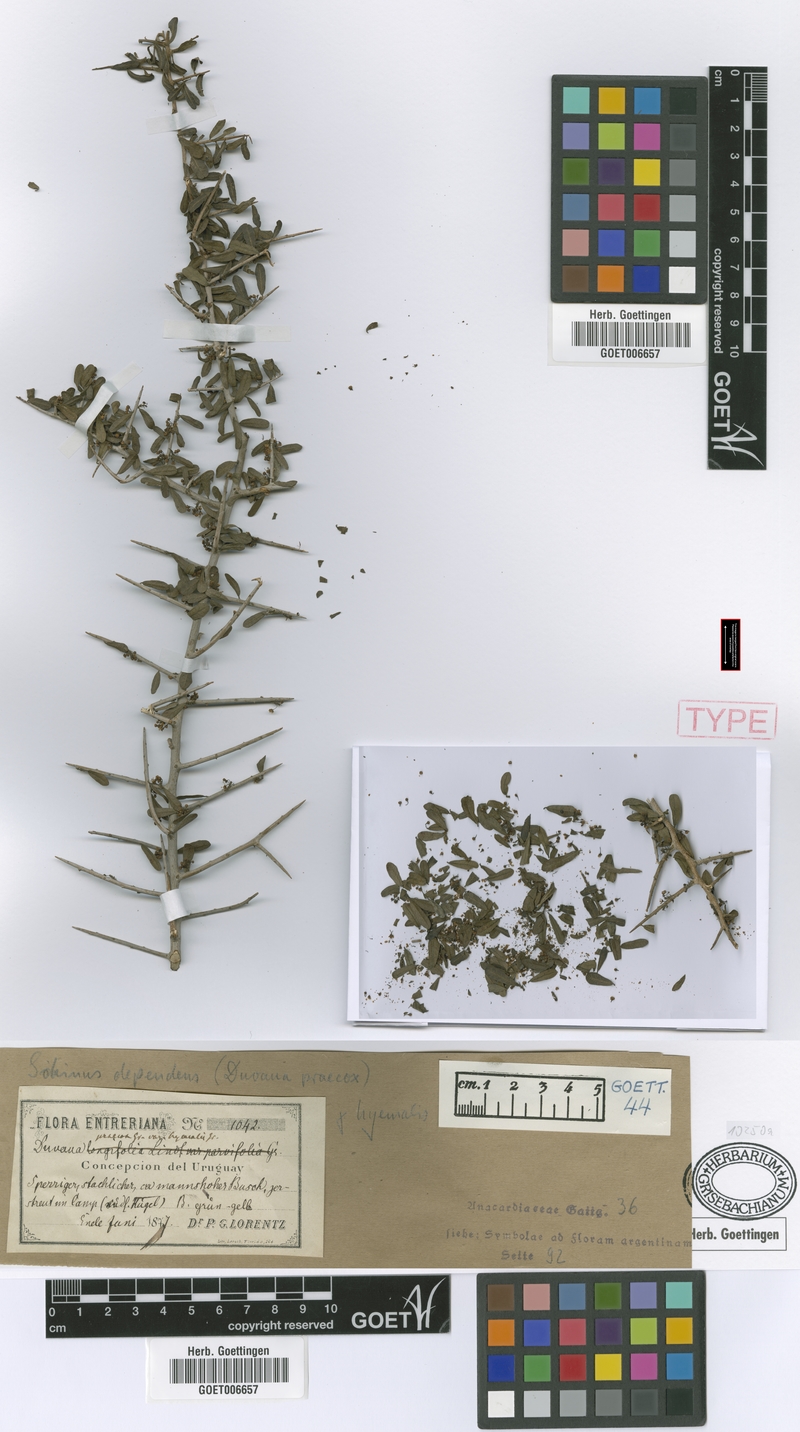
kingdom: Plantae
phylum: Tracheophyta
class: Magnoliopsida
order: Sapindales
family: Anacardiaceae
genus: Schinus
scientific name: Schinus polygama
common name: Hardee peppertree
